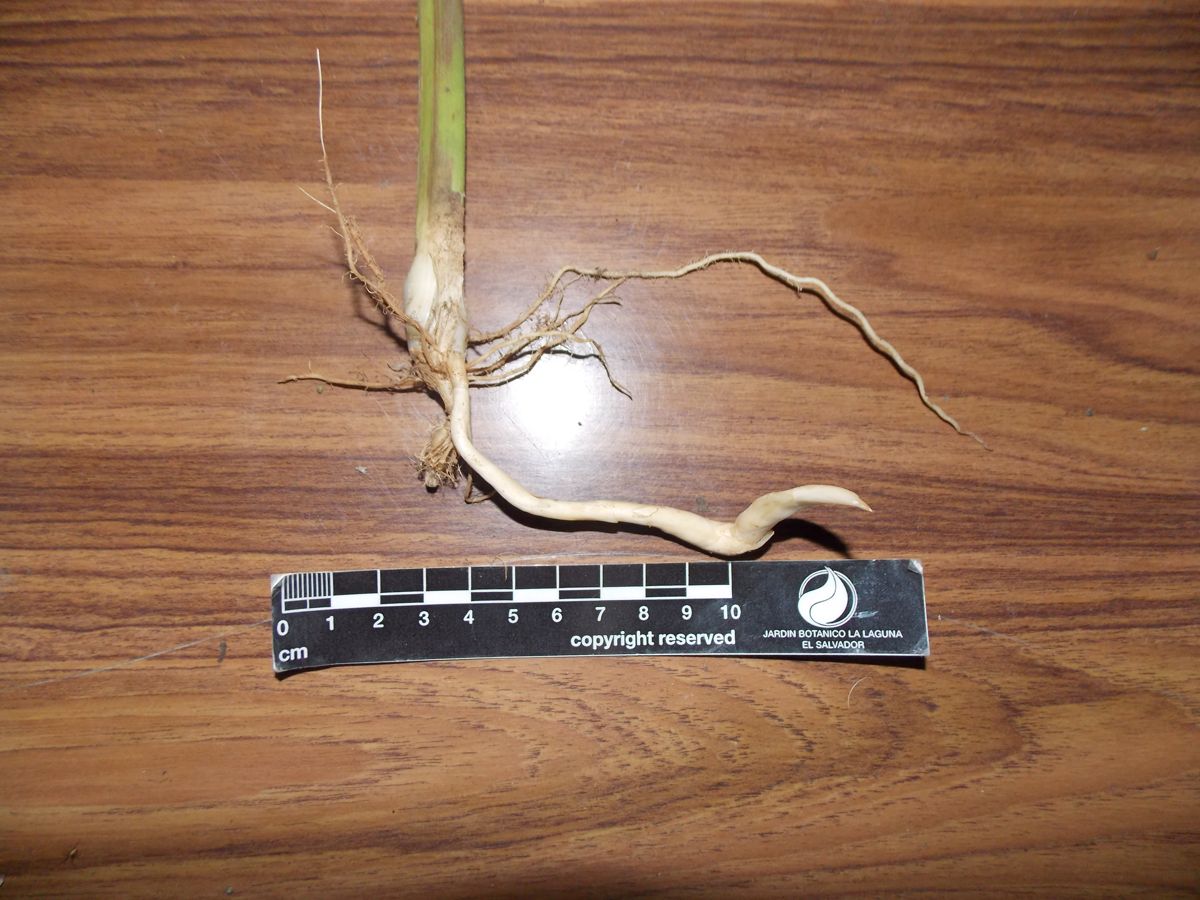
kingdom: Plantae
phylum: Tracheophyta
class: Liliopsida
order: Zingiberales
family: Marantaceae
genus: Maranta
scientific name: Maranta arundinacea
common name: Arrowroot
